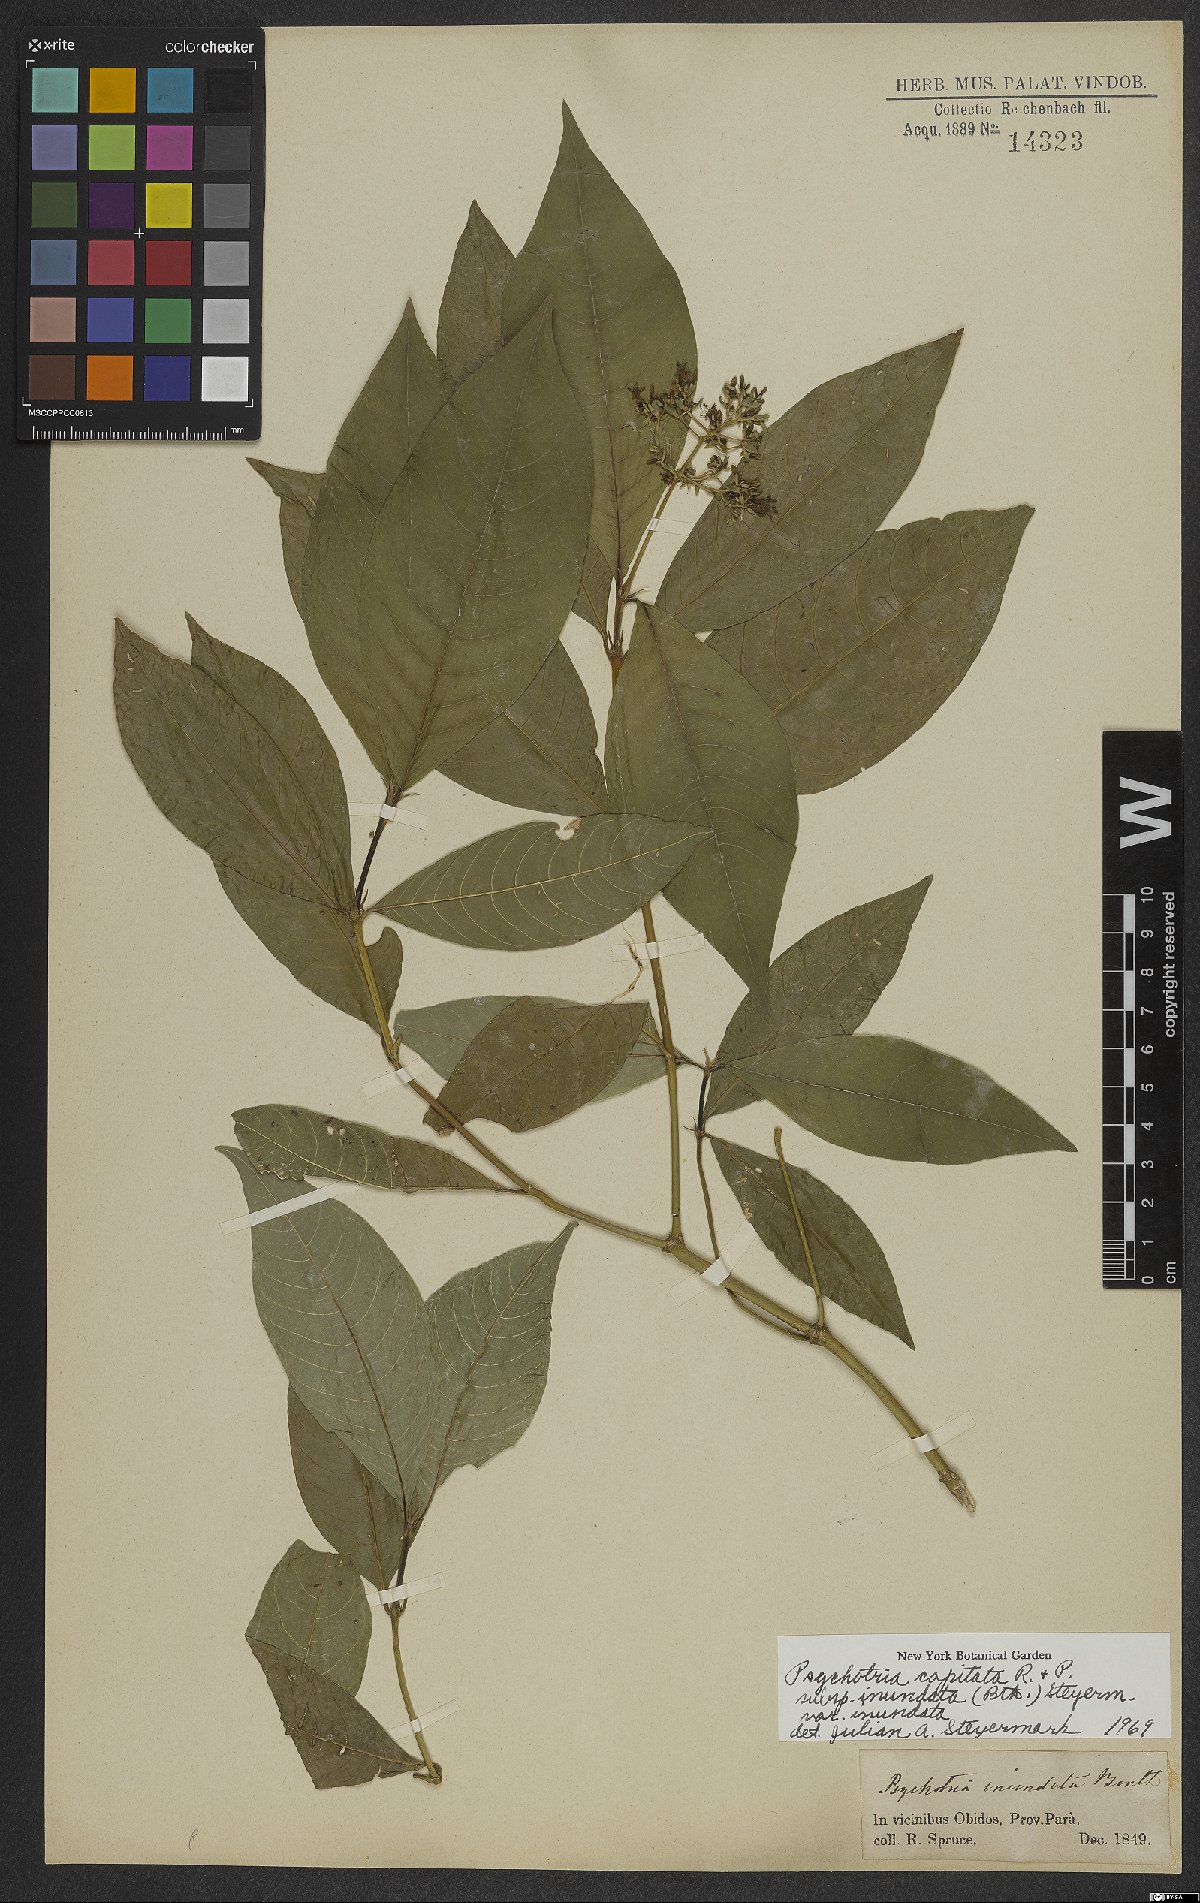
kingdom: Plantae
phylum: Tracheophyta
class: Magnoliopsida
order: Gentianales
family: Rubiaceae
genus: Palicourea
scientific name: Palicourea violacea
